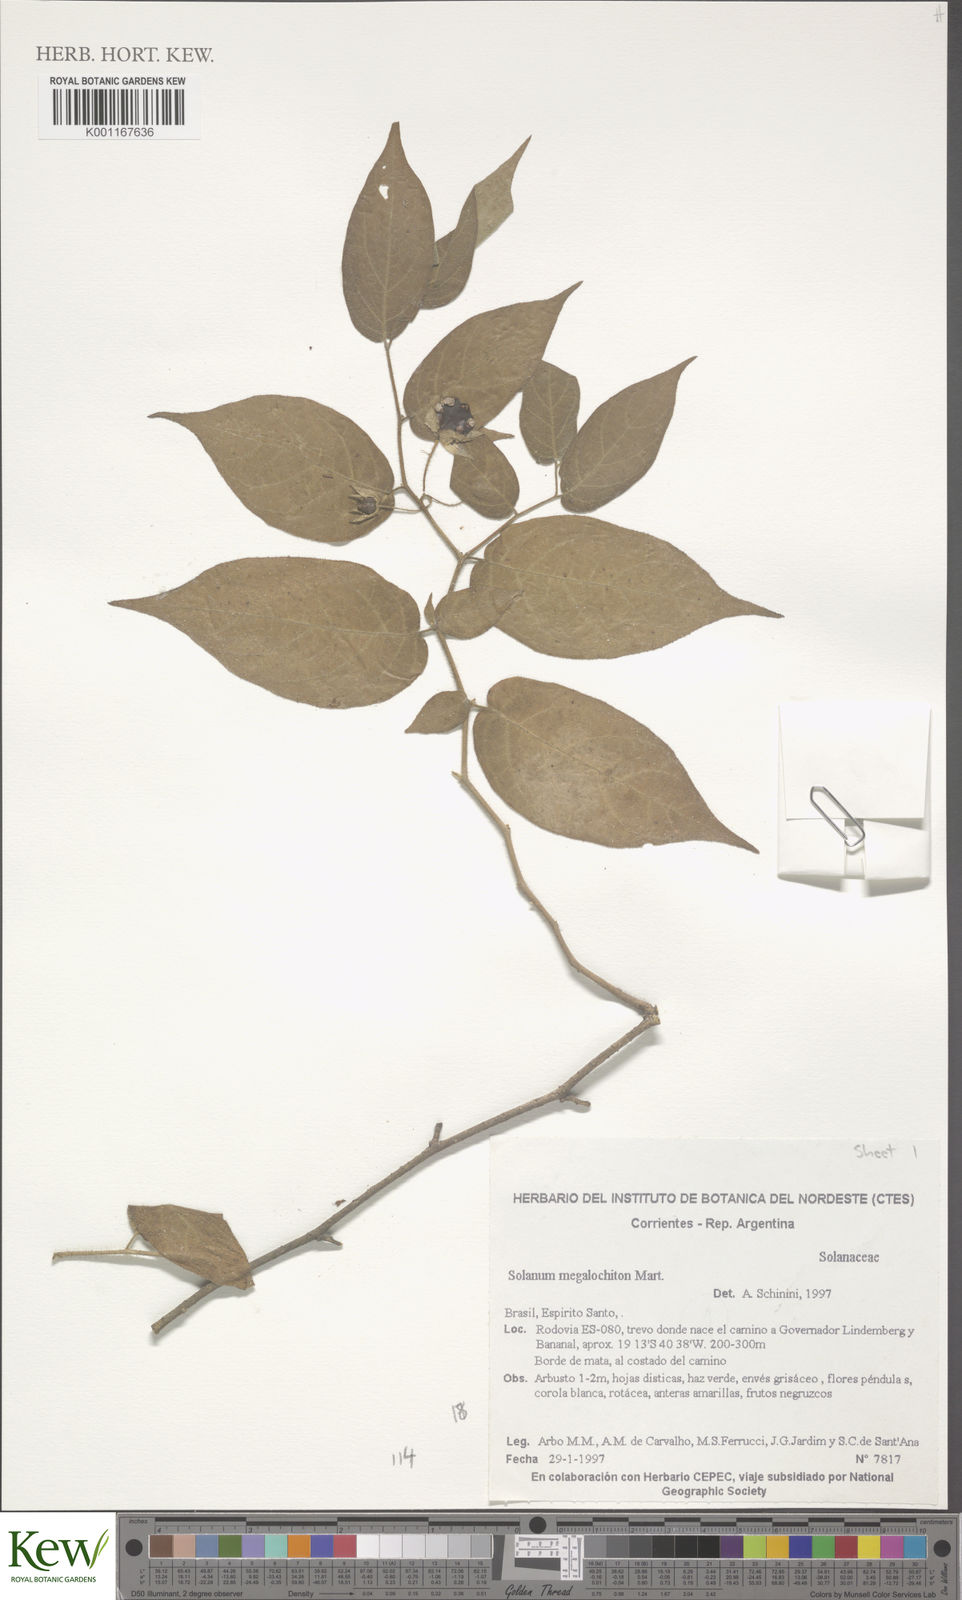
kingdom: Plantae
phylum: Tracheophyta
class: Magnoliopsida
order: Solanales
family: Solanaceae
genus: Solanum
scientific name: Solanum megalochiton
